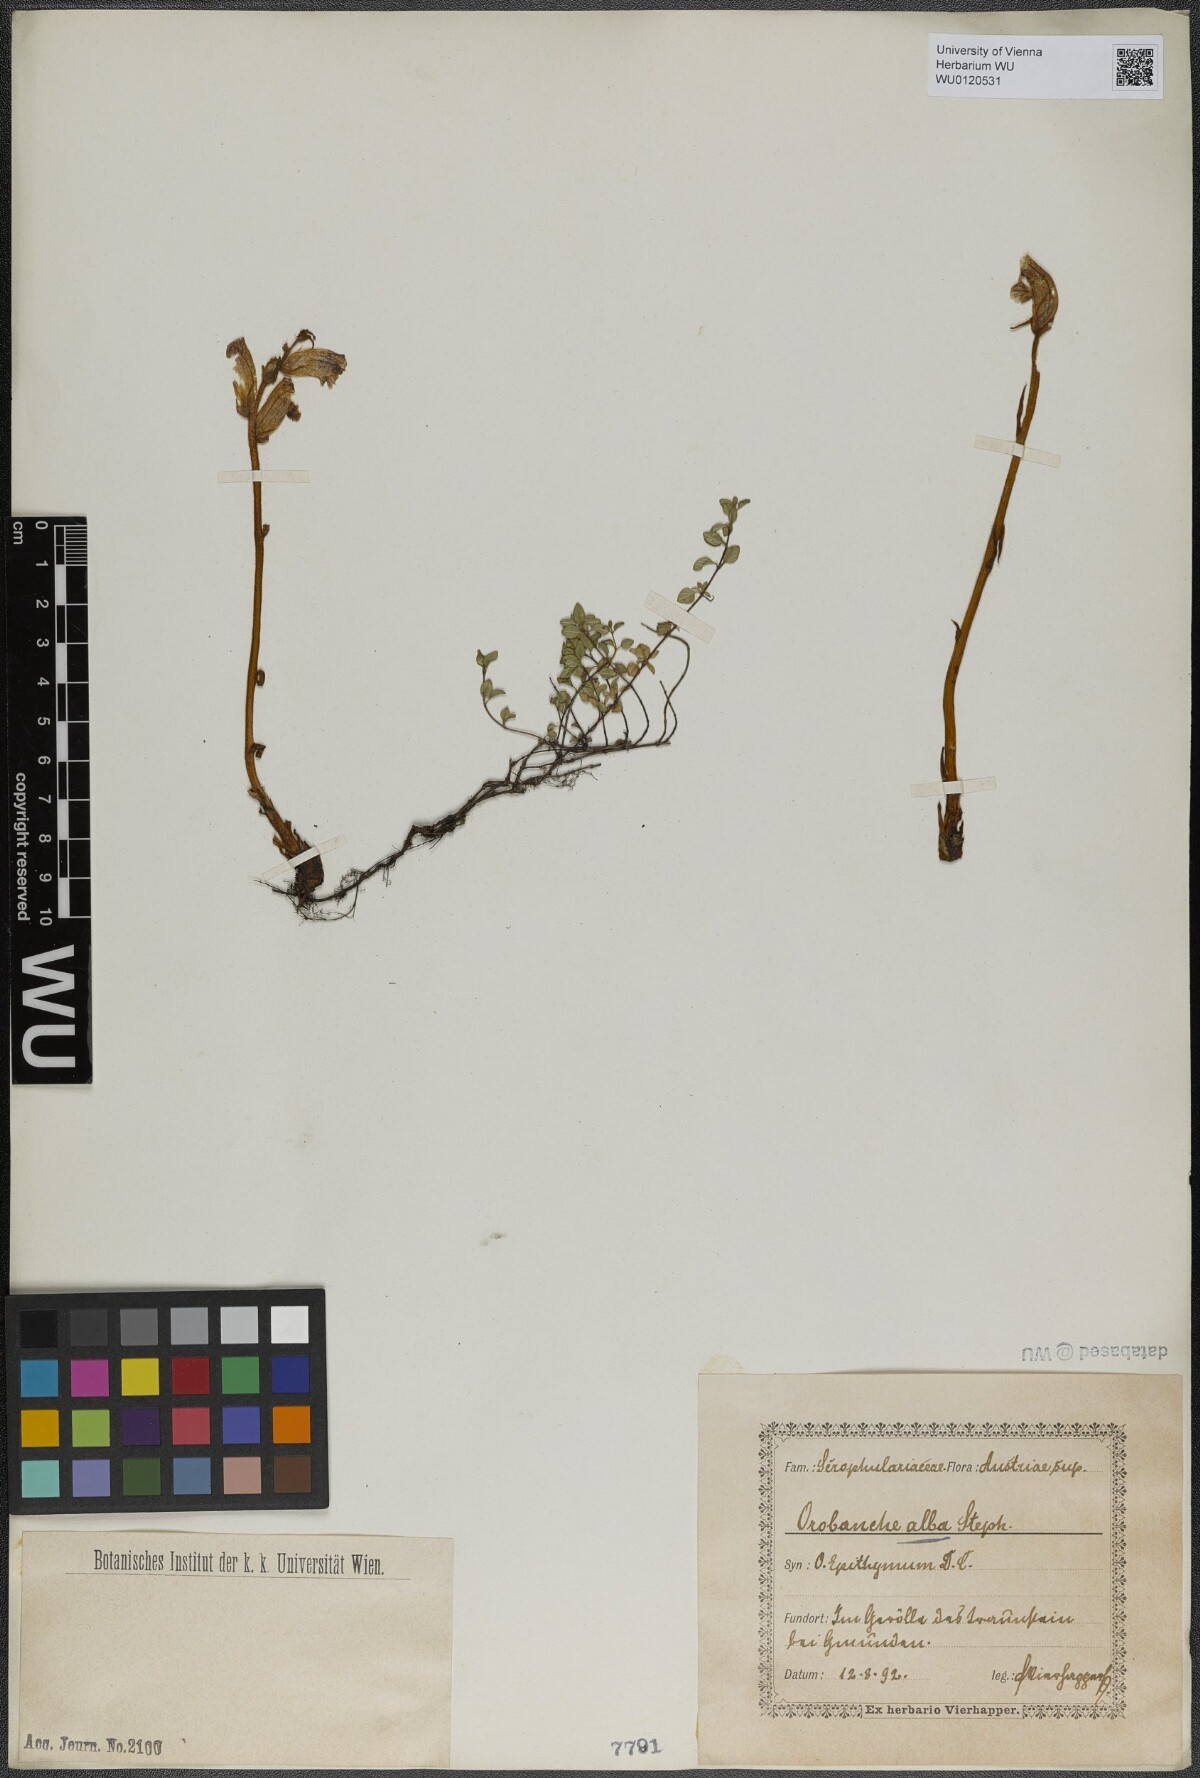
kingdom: Plantae
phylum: Tracheophyta
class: Magnoliopsida
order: Lamiales
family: Orobanchaceae
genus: Orobanche
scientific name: Orobanche alba
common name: Thyme broomrape
